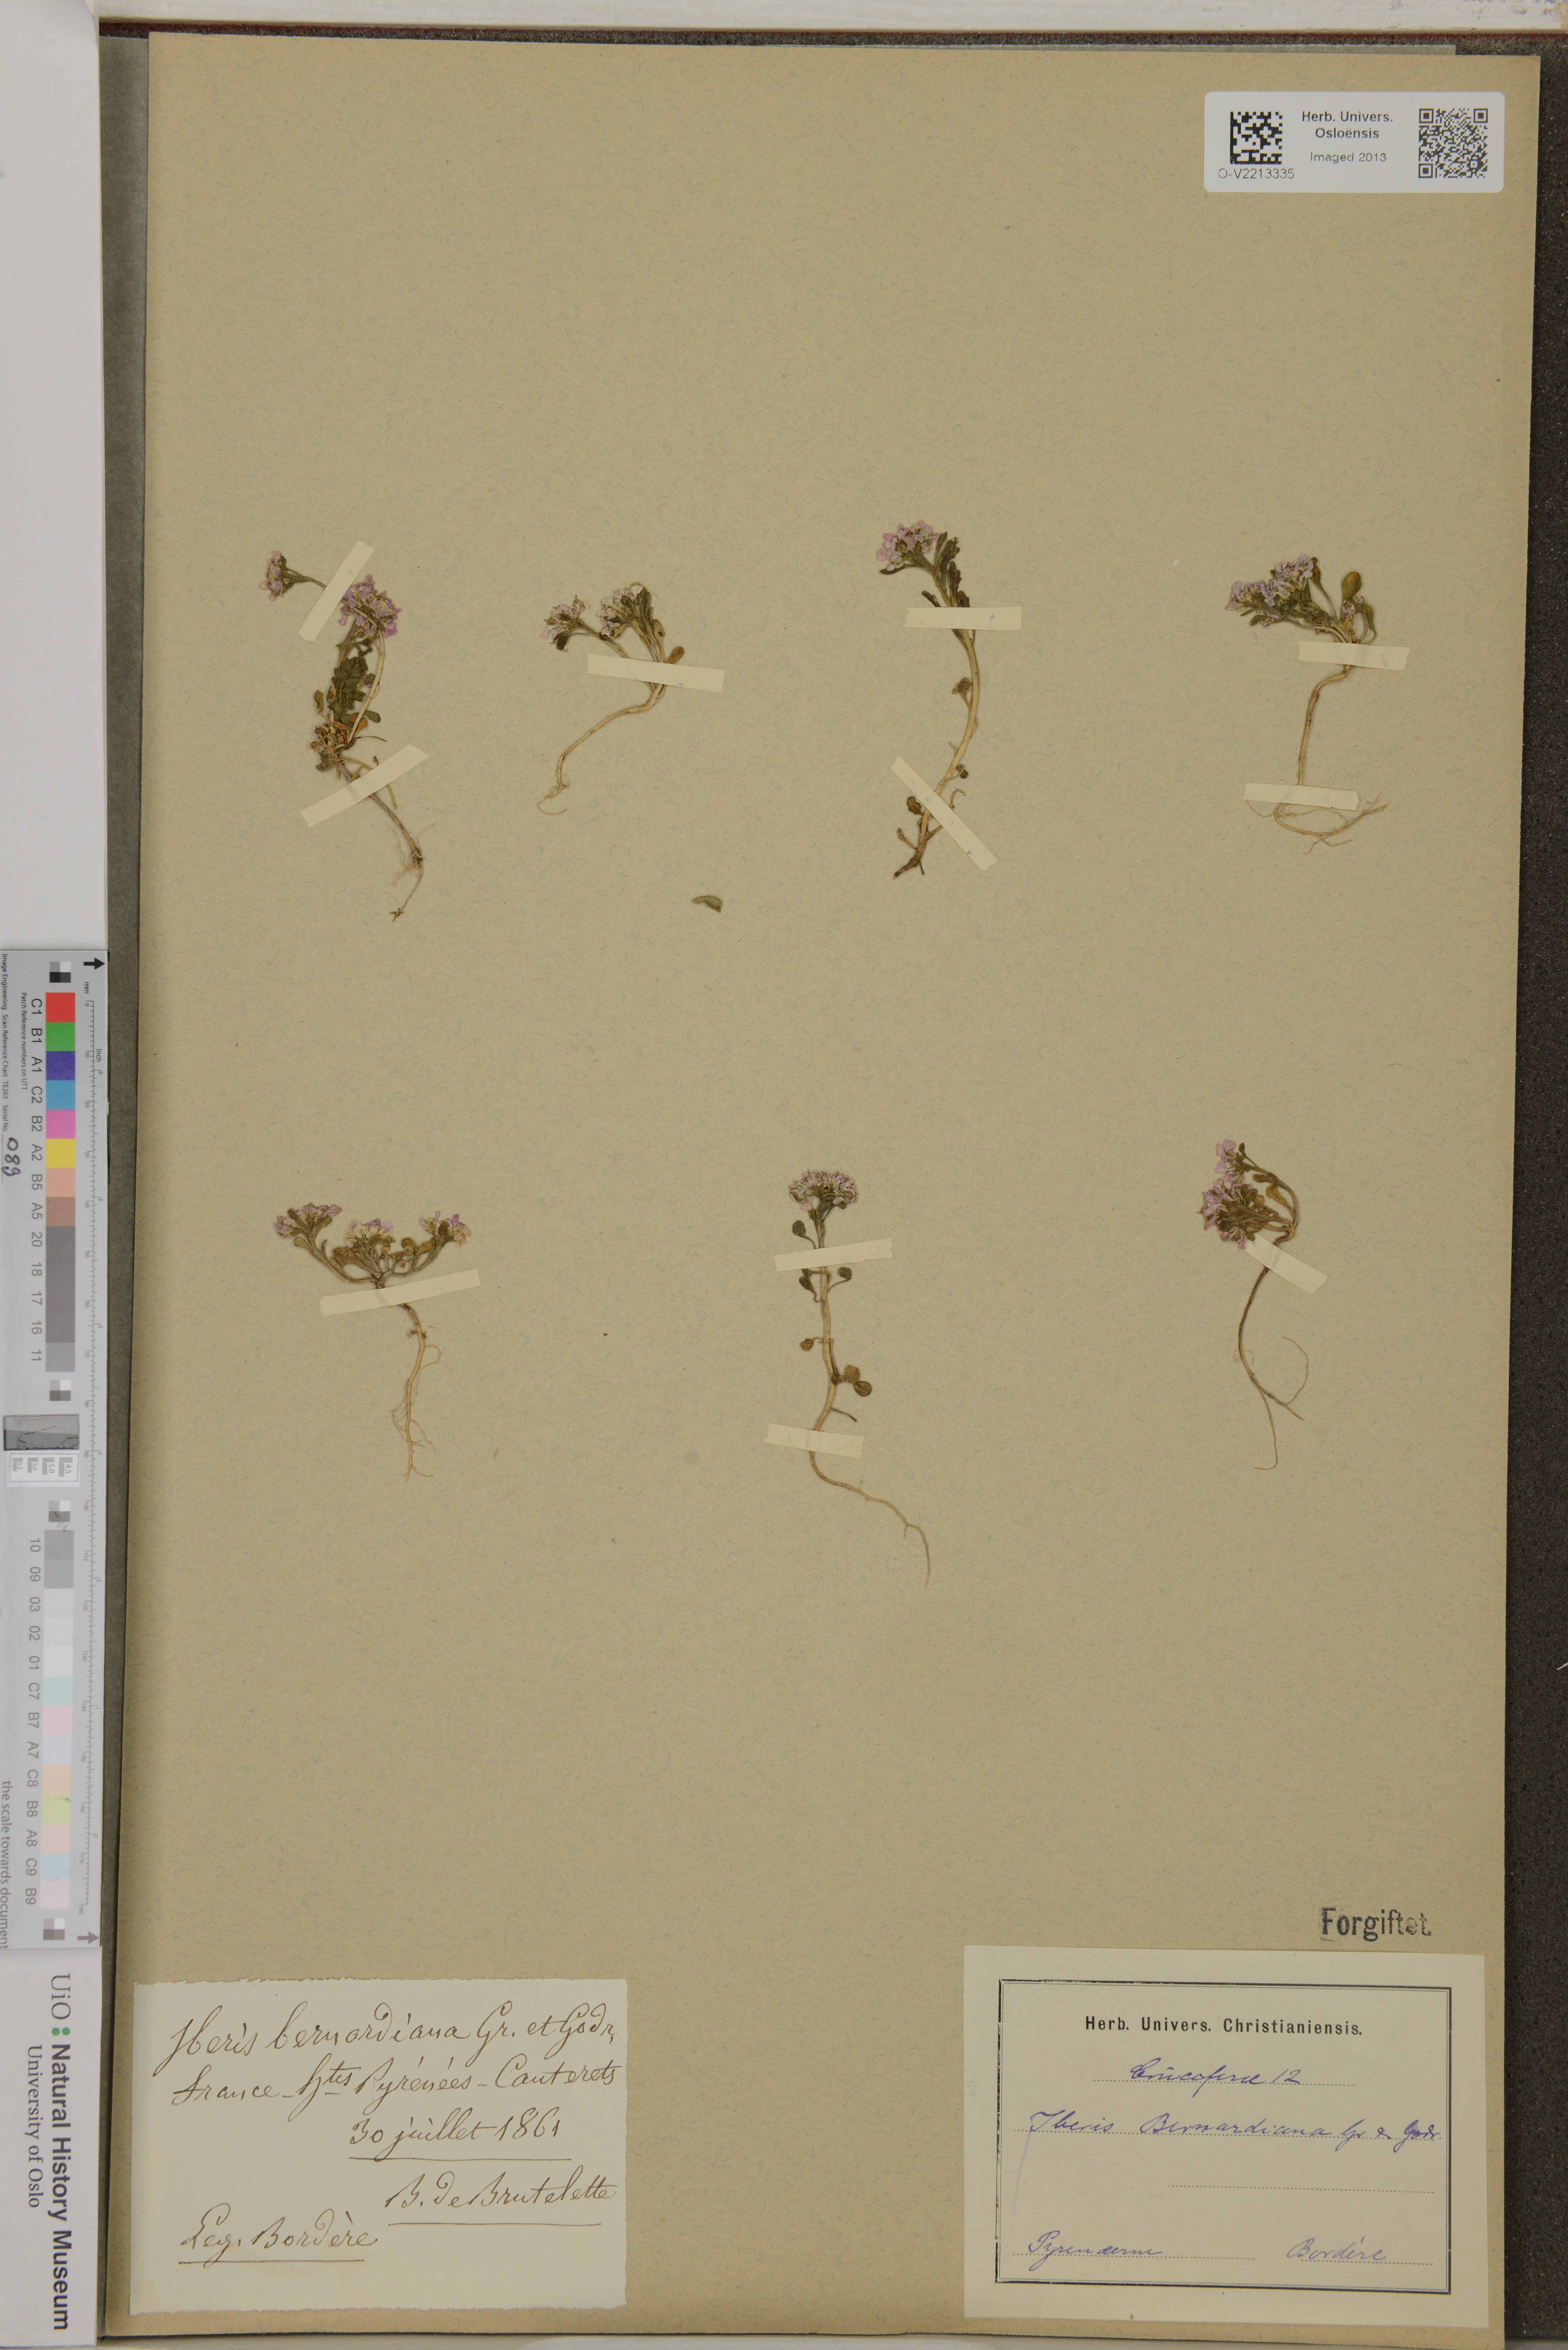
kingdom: Plantae
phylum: Tracheophyta
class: Magnoliopsida
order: Brassicales
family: Brassicaceae
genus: Iberis
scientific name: Iberis bernardiana
